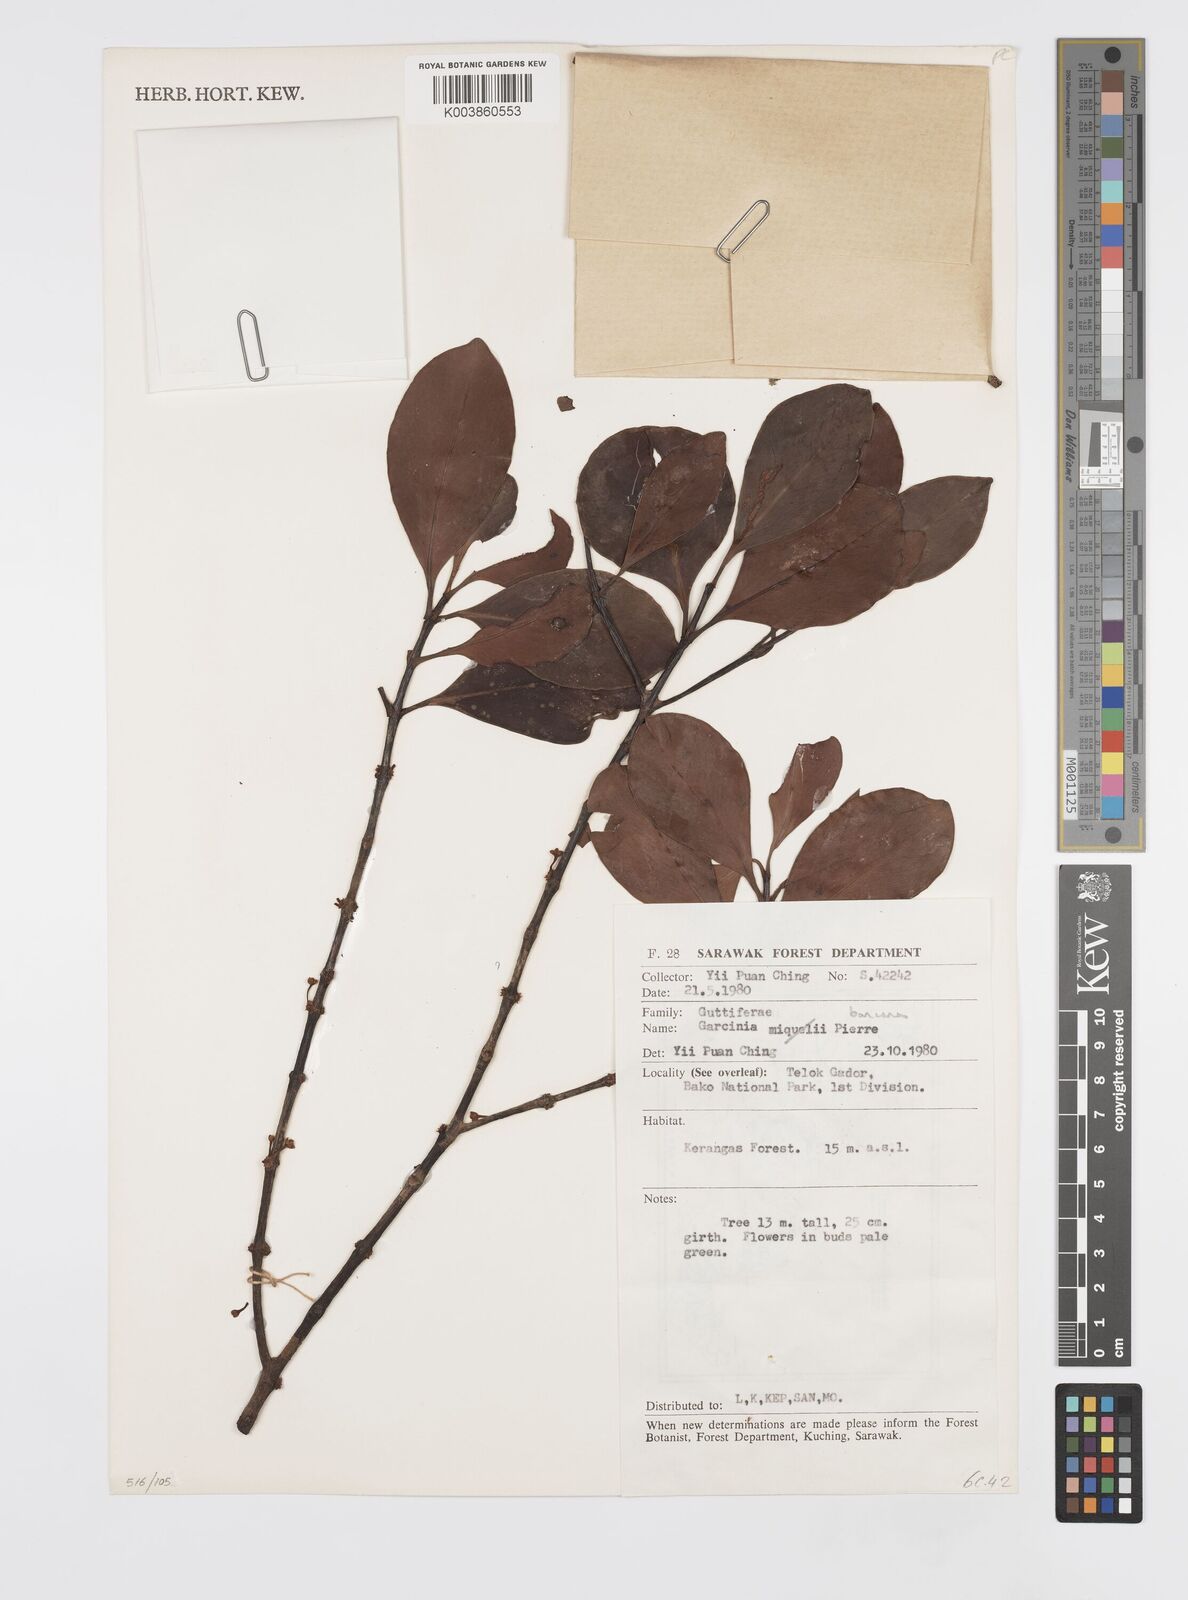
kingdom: Plantae
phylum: Tracheophyta
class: Magnoliopsida
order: Malpighiales
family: Clusiaceae
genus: Garcinia
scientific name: Garcinia bancana
